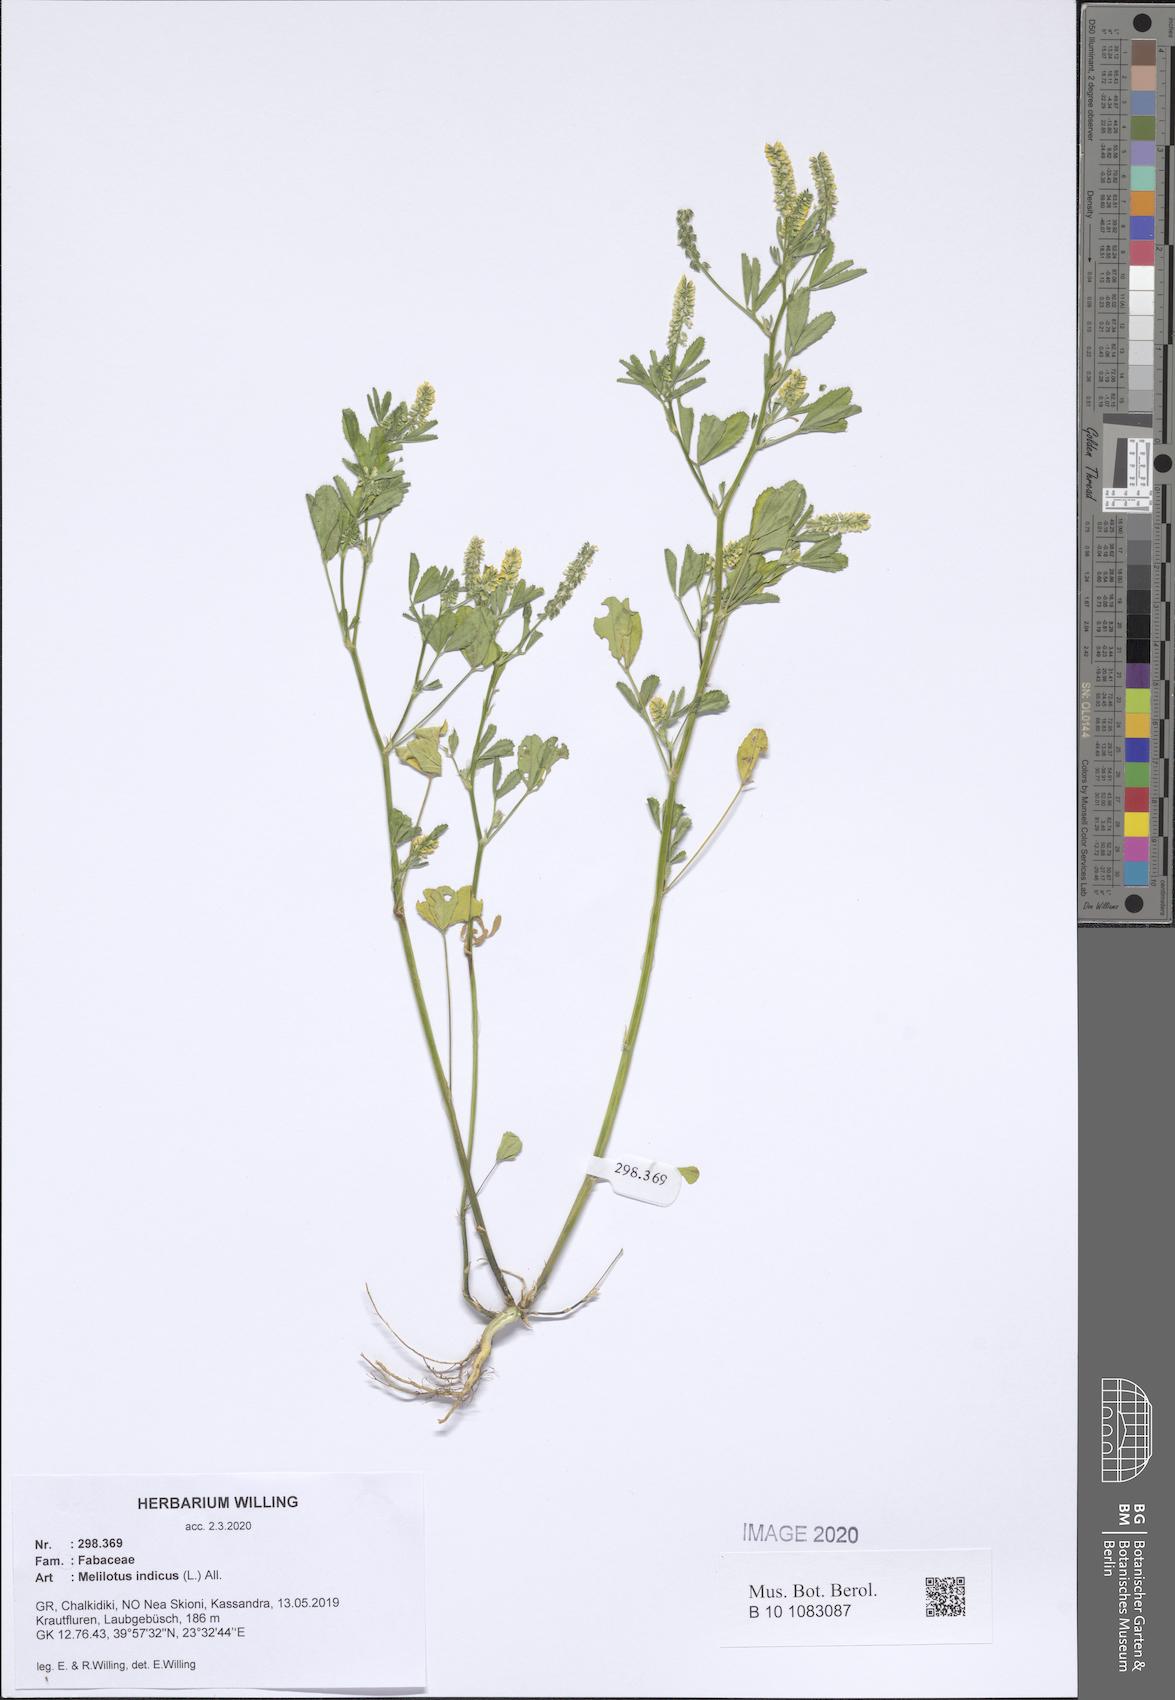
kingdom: Plantae
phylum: Tracheophyta
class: Magnoliopsida
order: Fabales
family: Fabaceae
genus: Melilotus
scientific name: Melilotus indicus
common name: Small melilot
